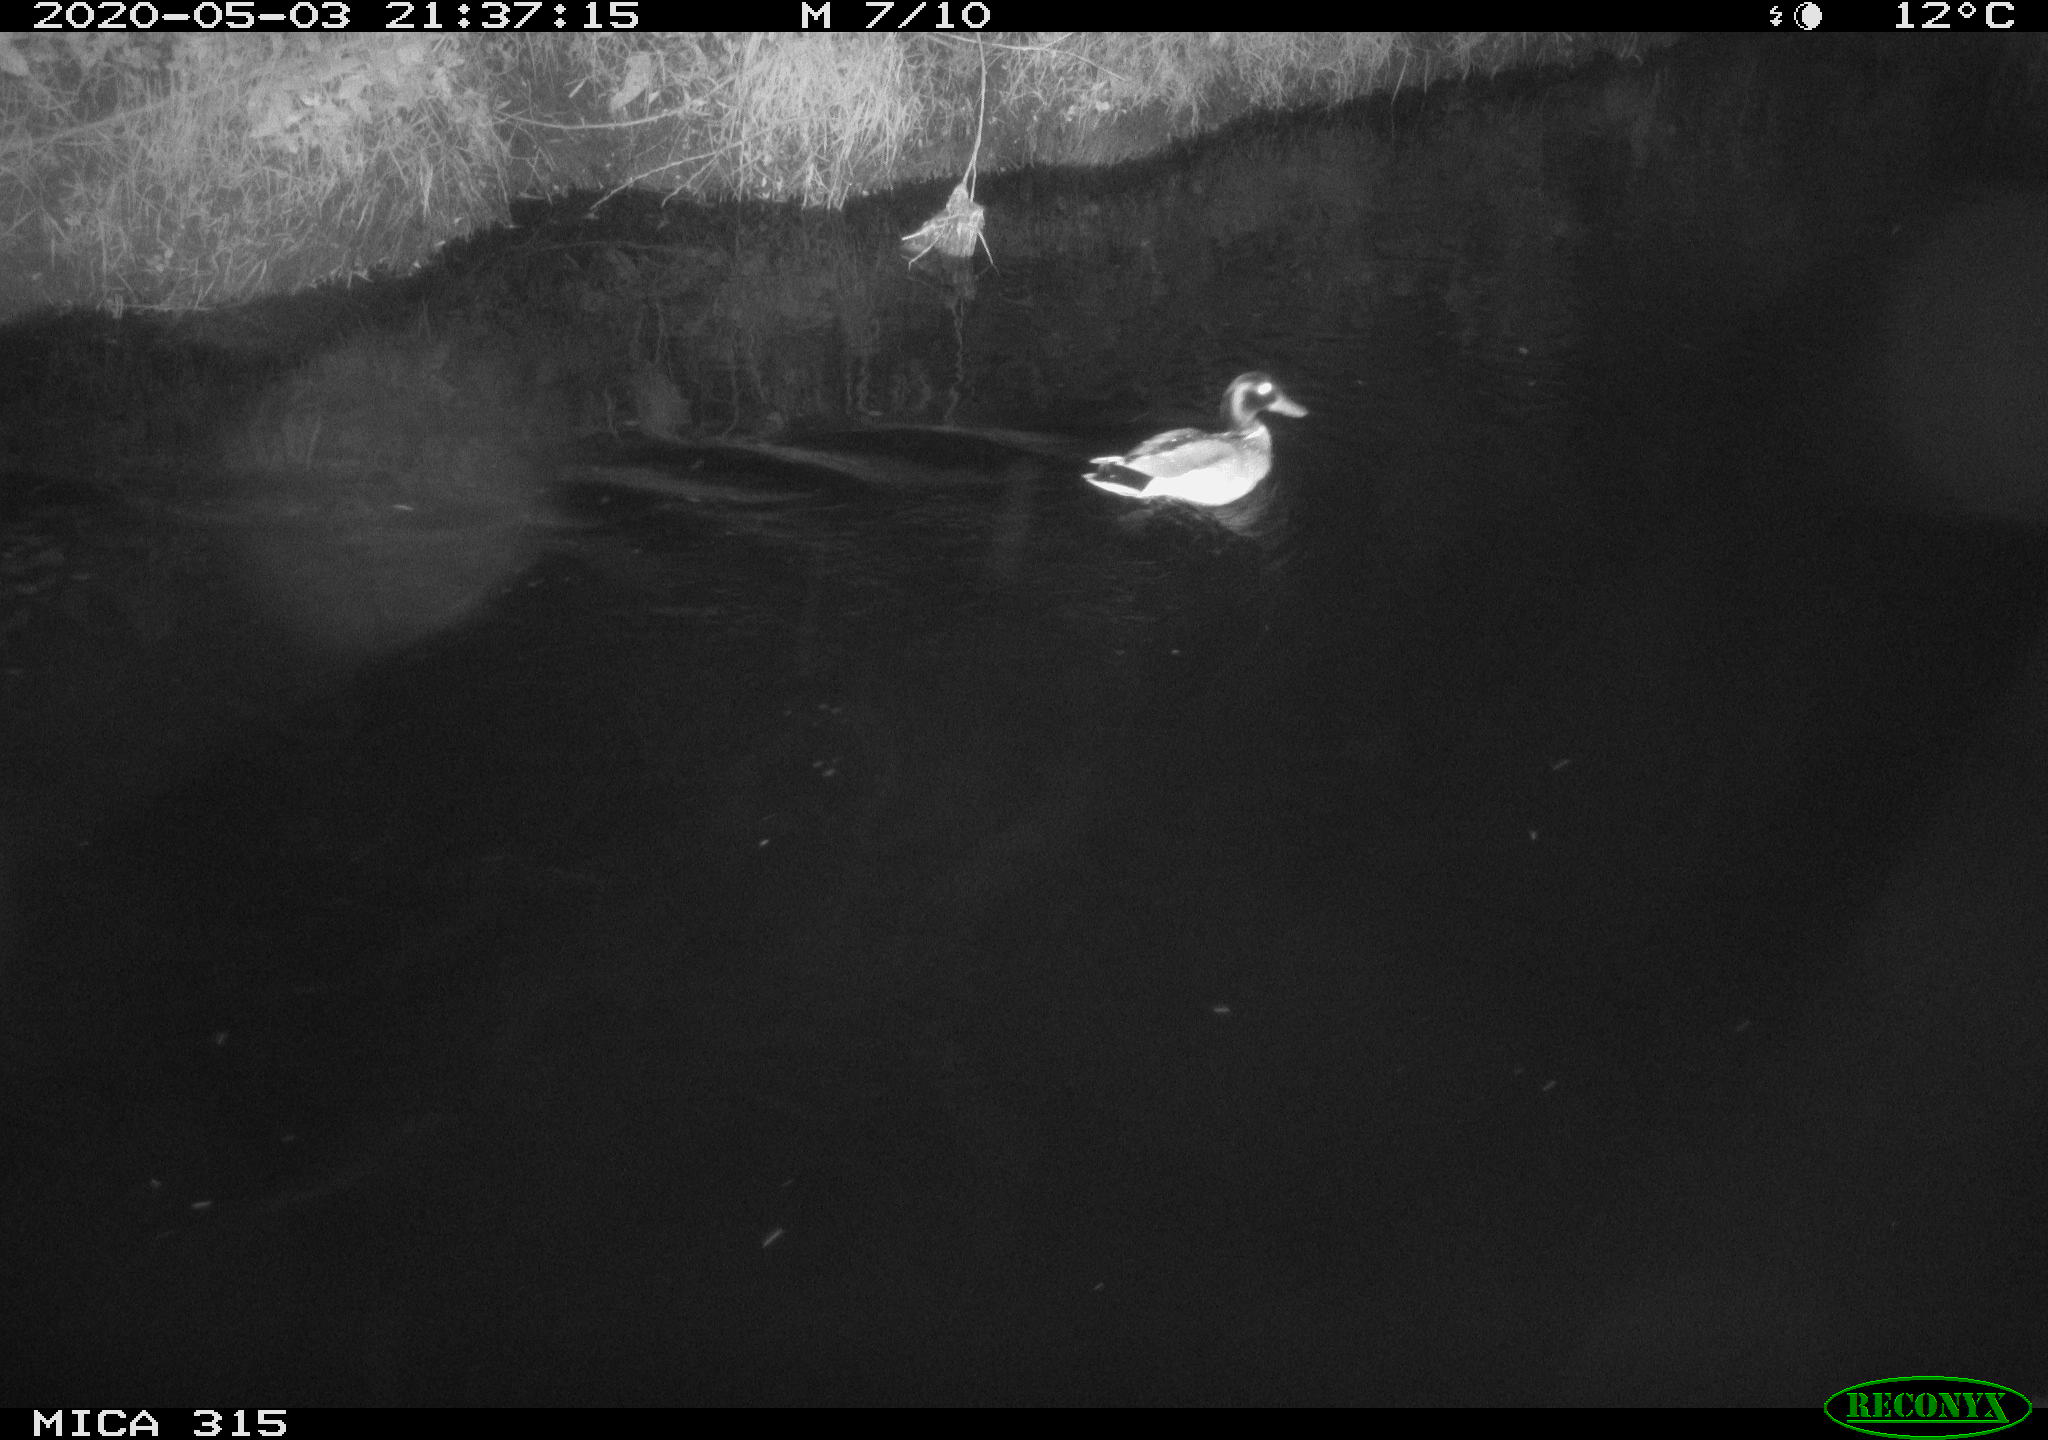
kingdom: Animalia
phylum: Chordata
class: Aves
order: Anseriformes
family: Anatidae
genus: Anas
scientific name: Anas platyrhynchos
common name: Mallard
